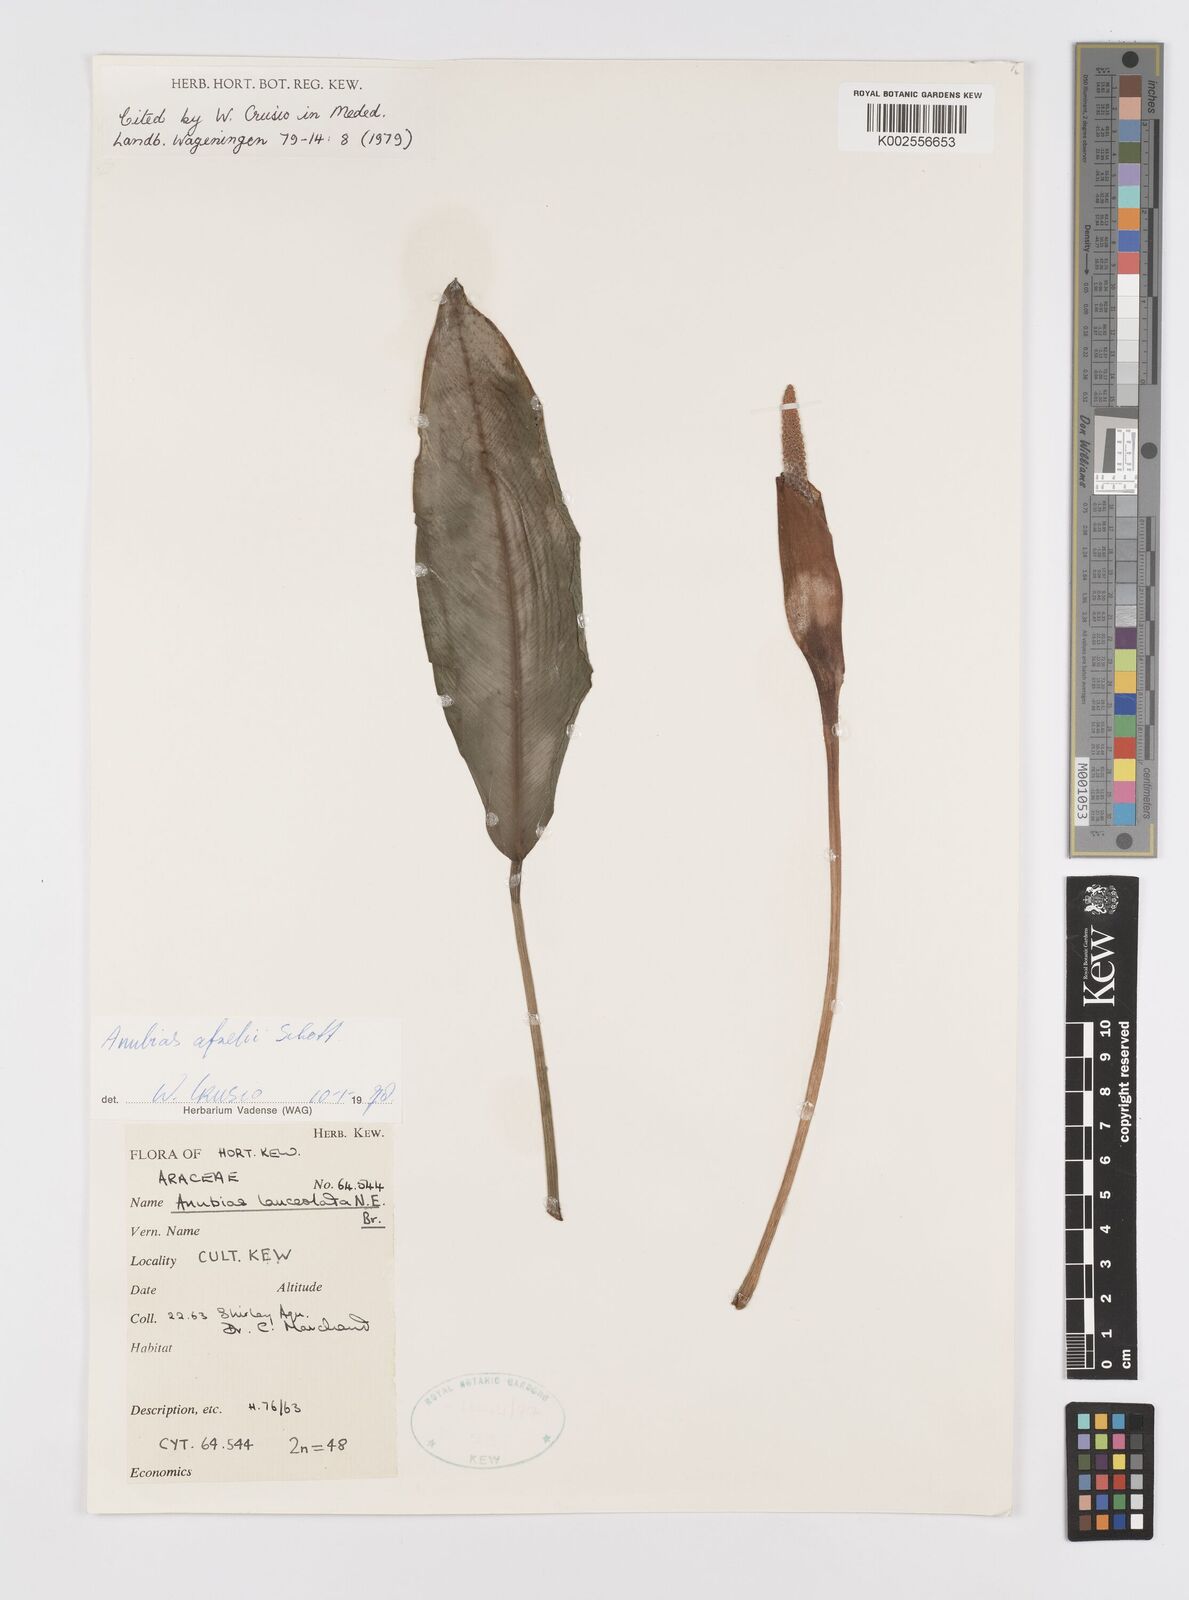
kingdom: Plantae
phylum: Tracheophyta
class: Liliopsida
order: Alismatales
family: Araceae
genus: Anubias
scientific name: Anubias afzelii
